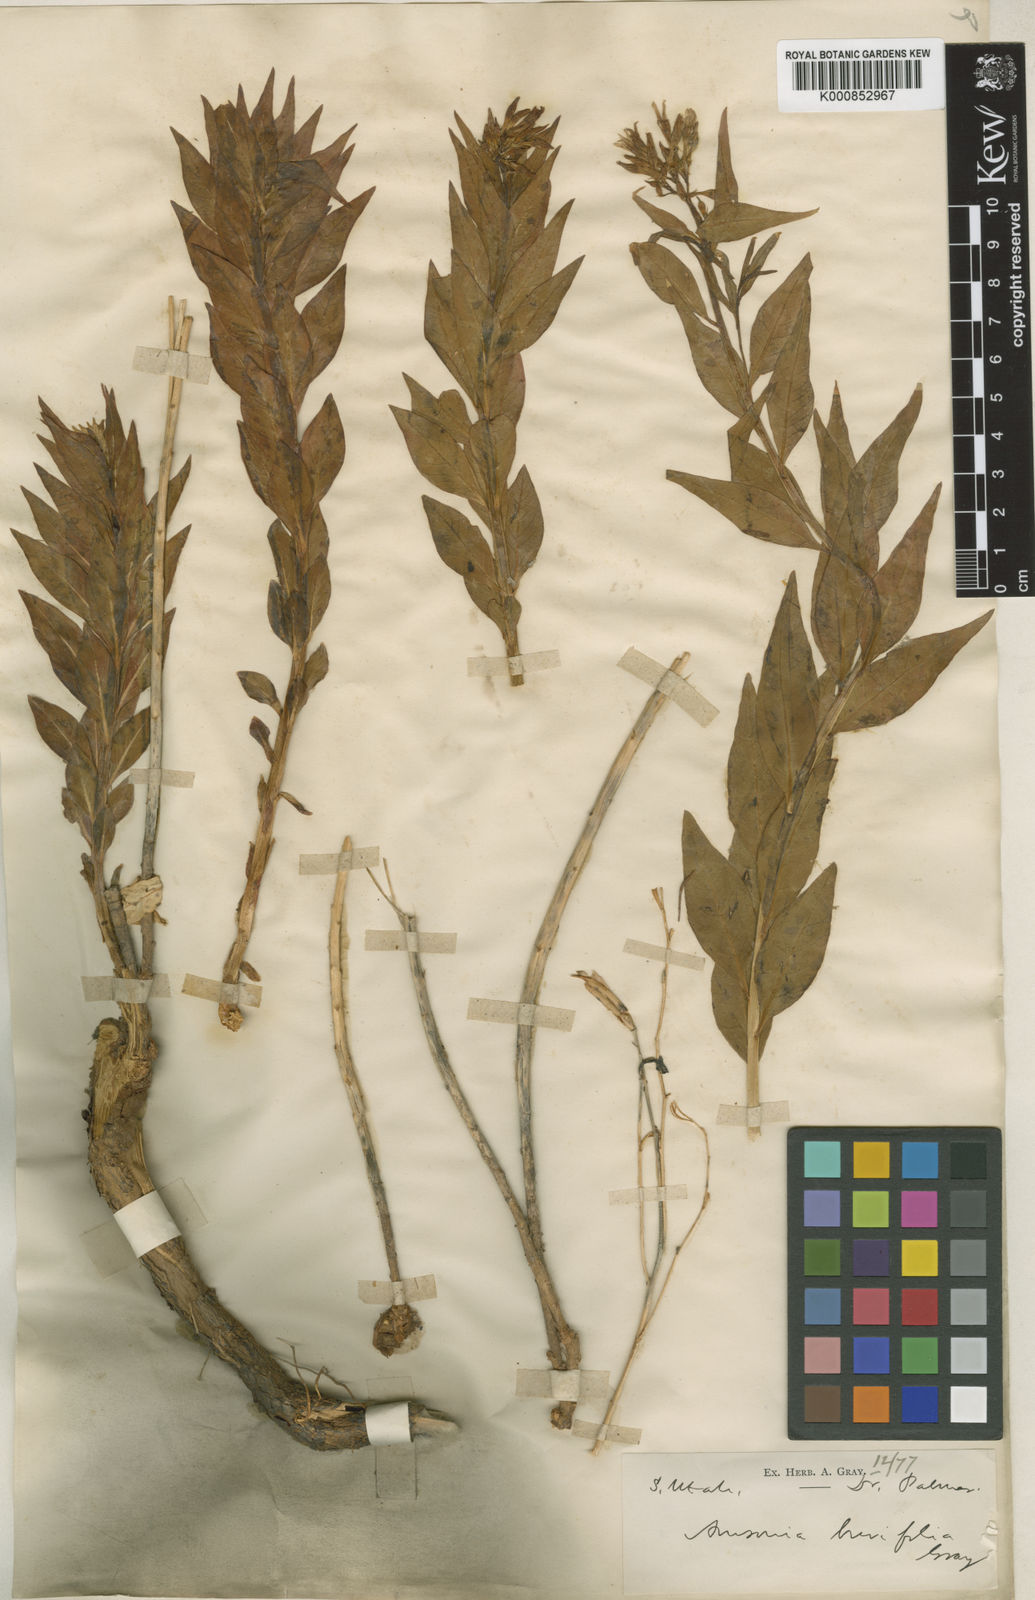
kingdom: Plantae
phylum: Tracheophyta
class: Magnoliopsida
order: Gentianales
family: Apocynaceae
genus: Amsonia
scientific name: Amsonia tomentosa
